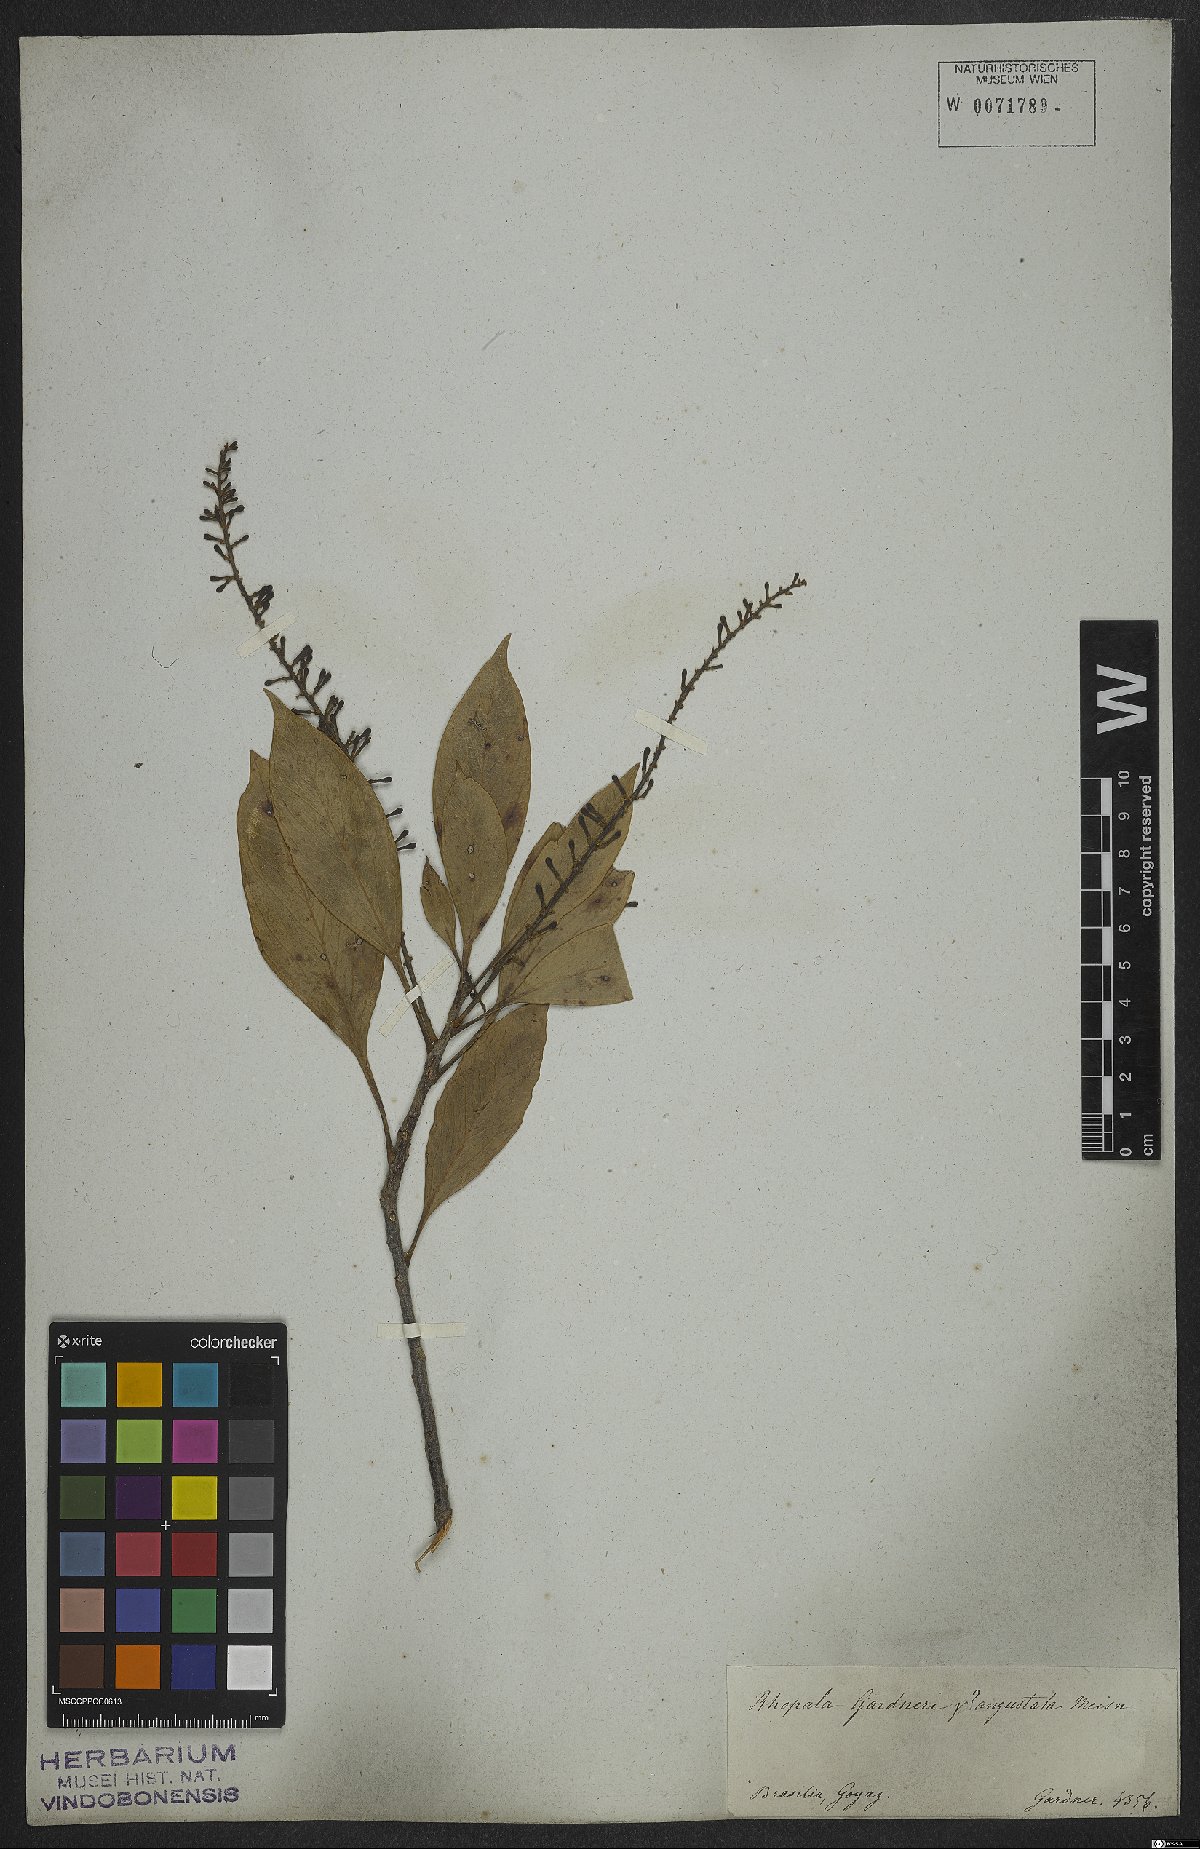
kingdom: Plantae
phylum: Tracheophyta
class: Magnoliopsida
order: Proteales
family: Proteaceae
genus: Roupala
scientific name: Roupala montana
